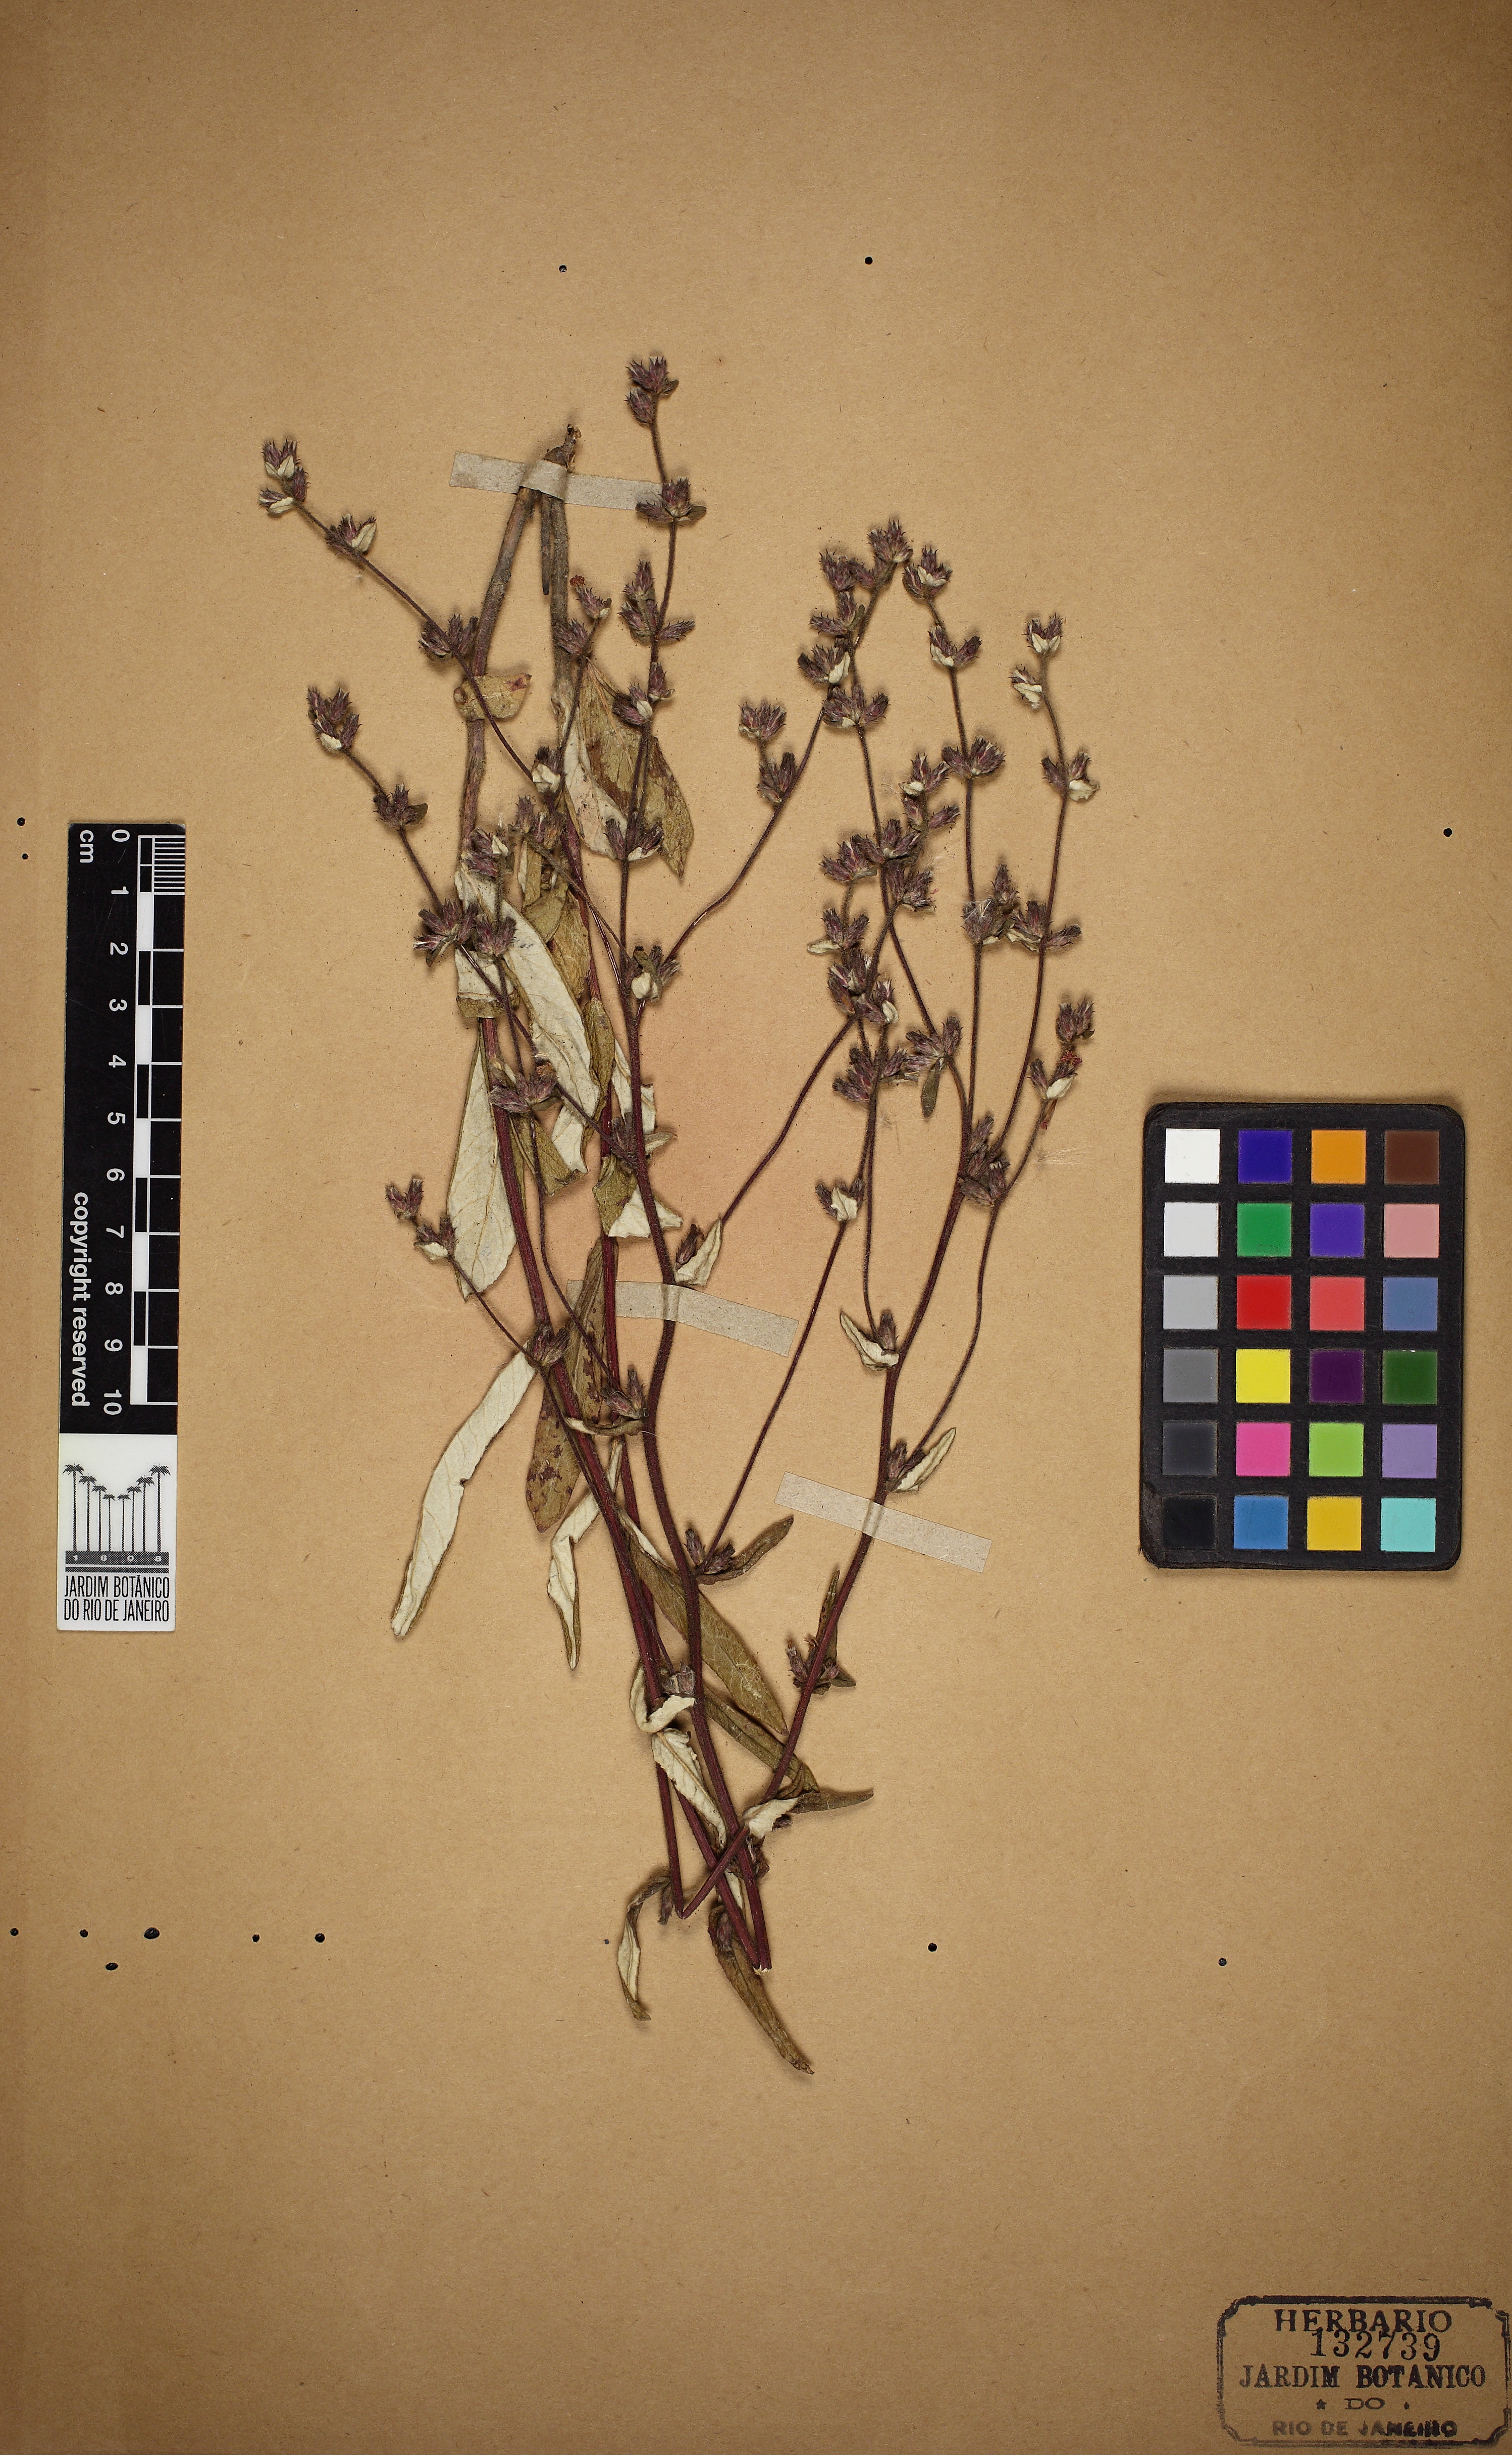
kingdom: Plantae
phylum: Tracheophyta
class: Magnoliopsida
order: Asterales
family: Asteraceae
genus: Stenocephalum
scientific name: Stenocephalum hexanthum
